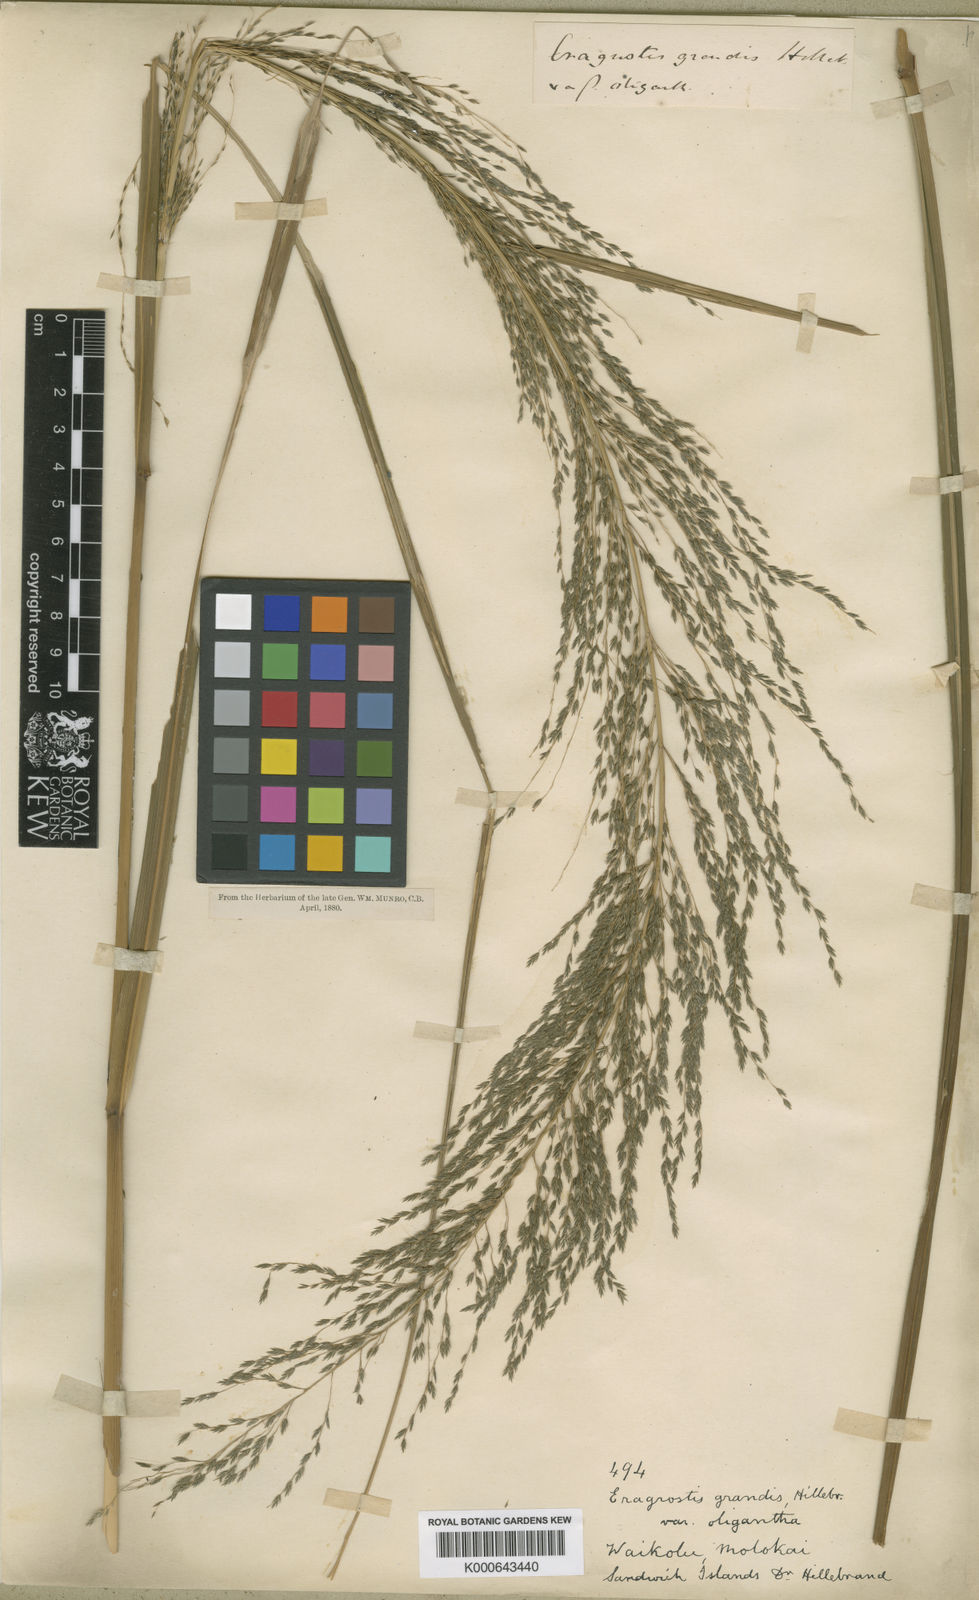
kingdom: Plantae
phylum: Tracheophyta
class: Liliopsida
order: Poales
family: Poaceae
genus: Eragrostis
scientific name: Eragrostis grandis
